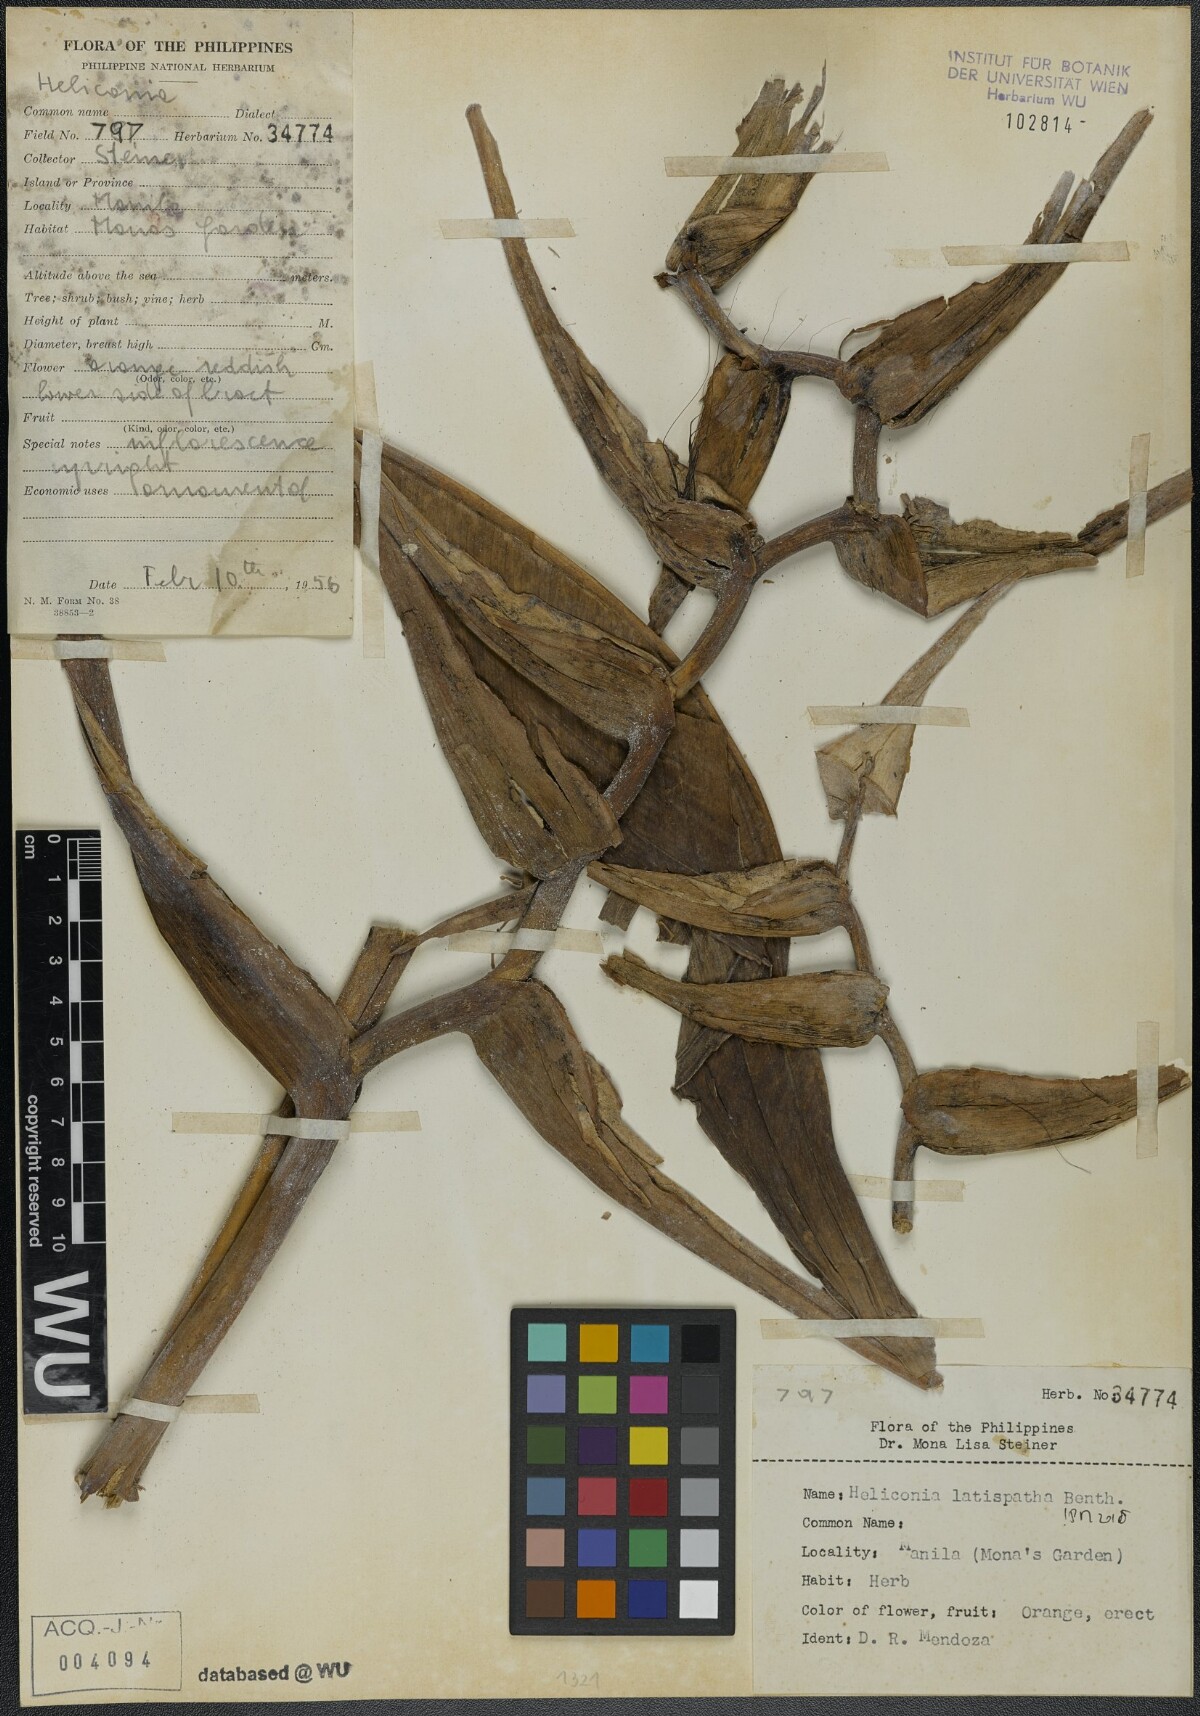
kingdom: Plantae
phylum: Tracheophyta
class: Liliopsida
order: Zingiberales
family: Heliconiaceae
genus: Heliconia
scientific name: Heliconia latispatha
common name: Expanded lobsterclaw
